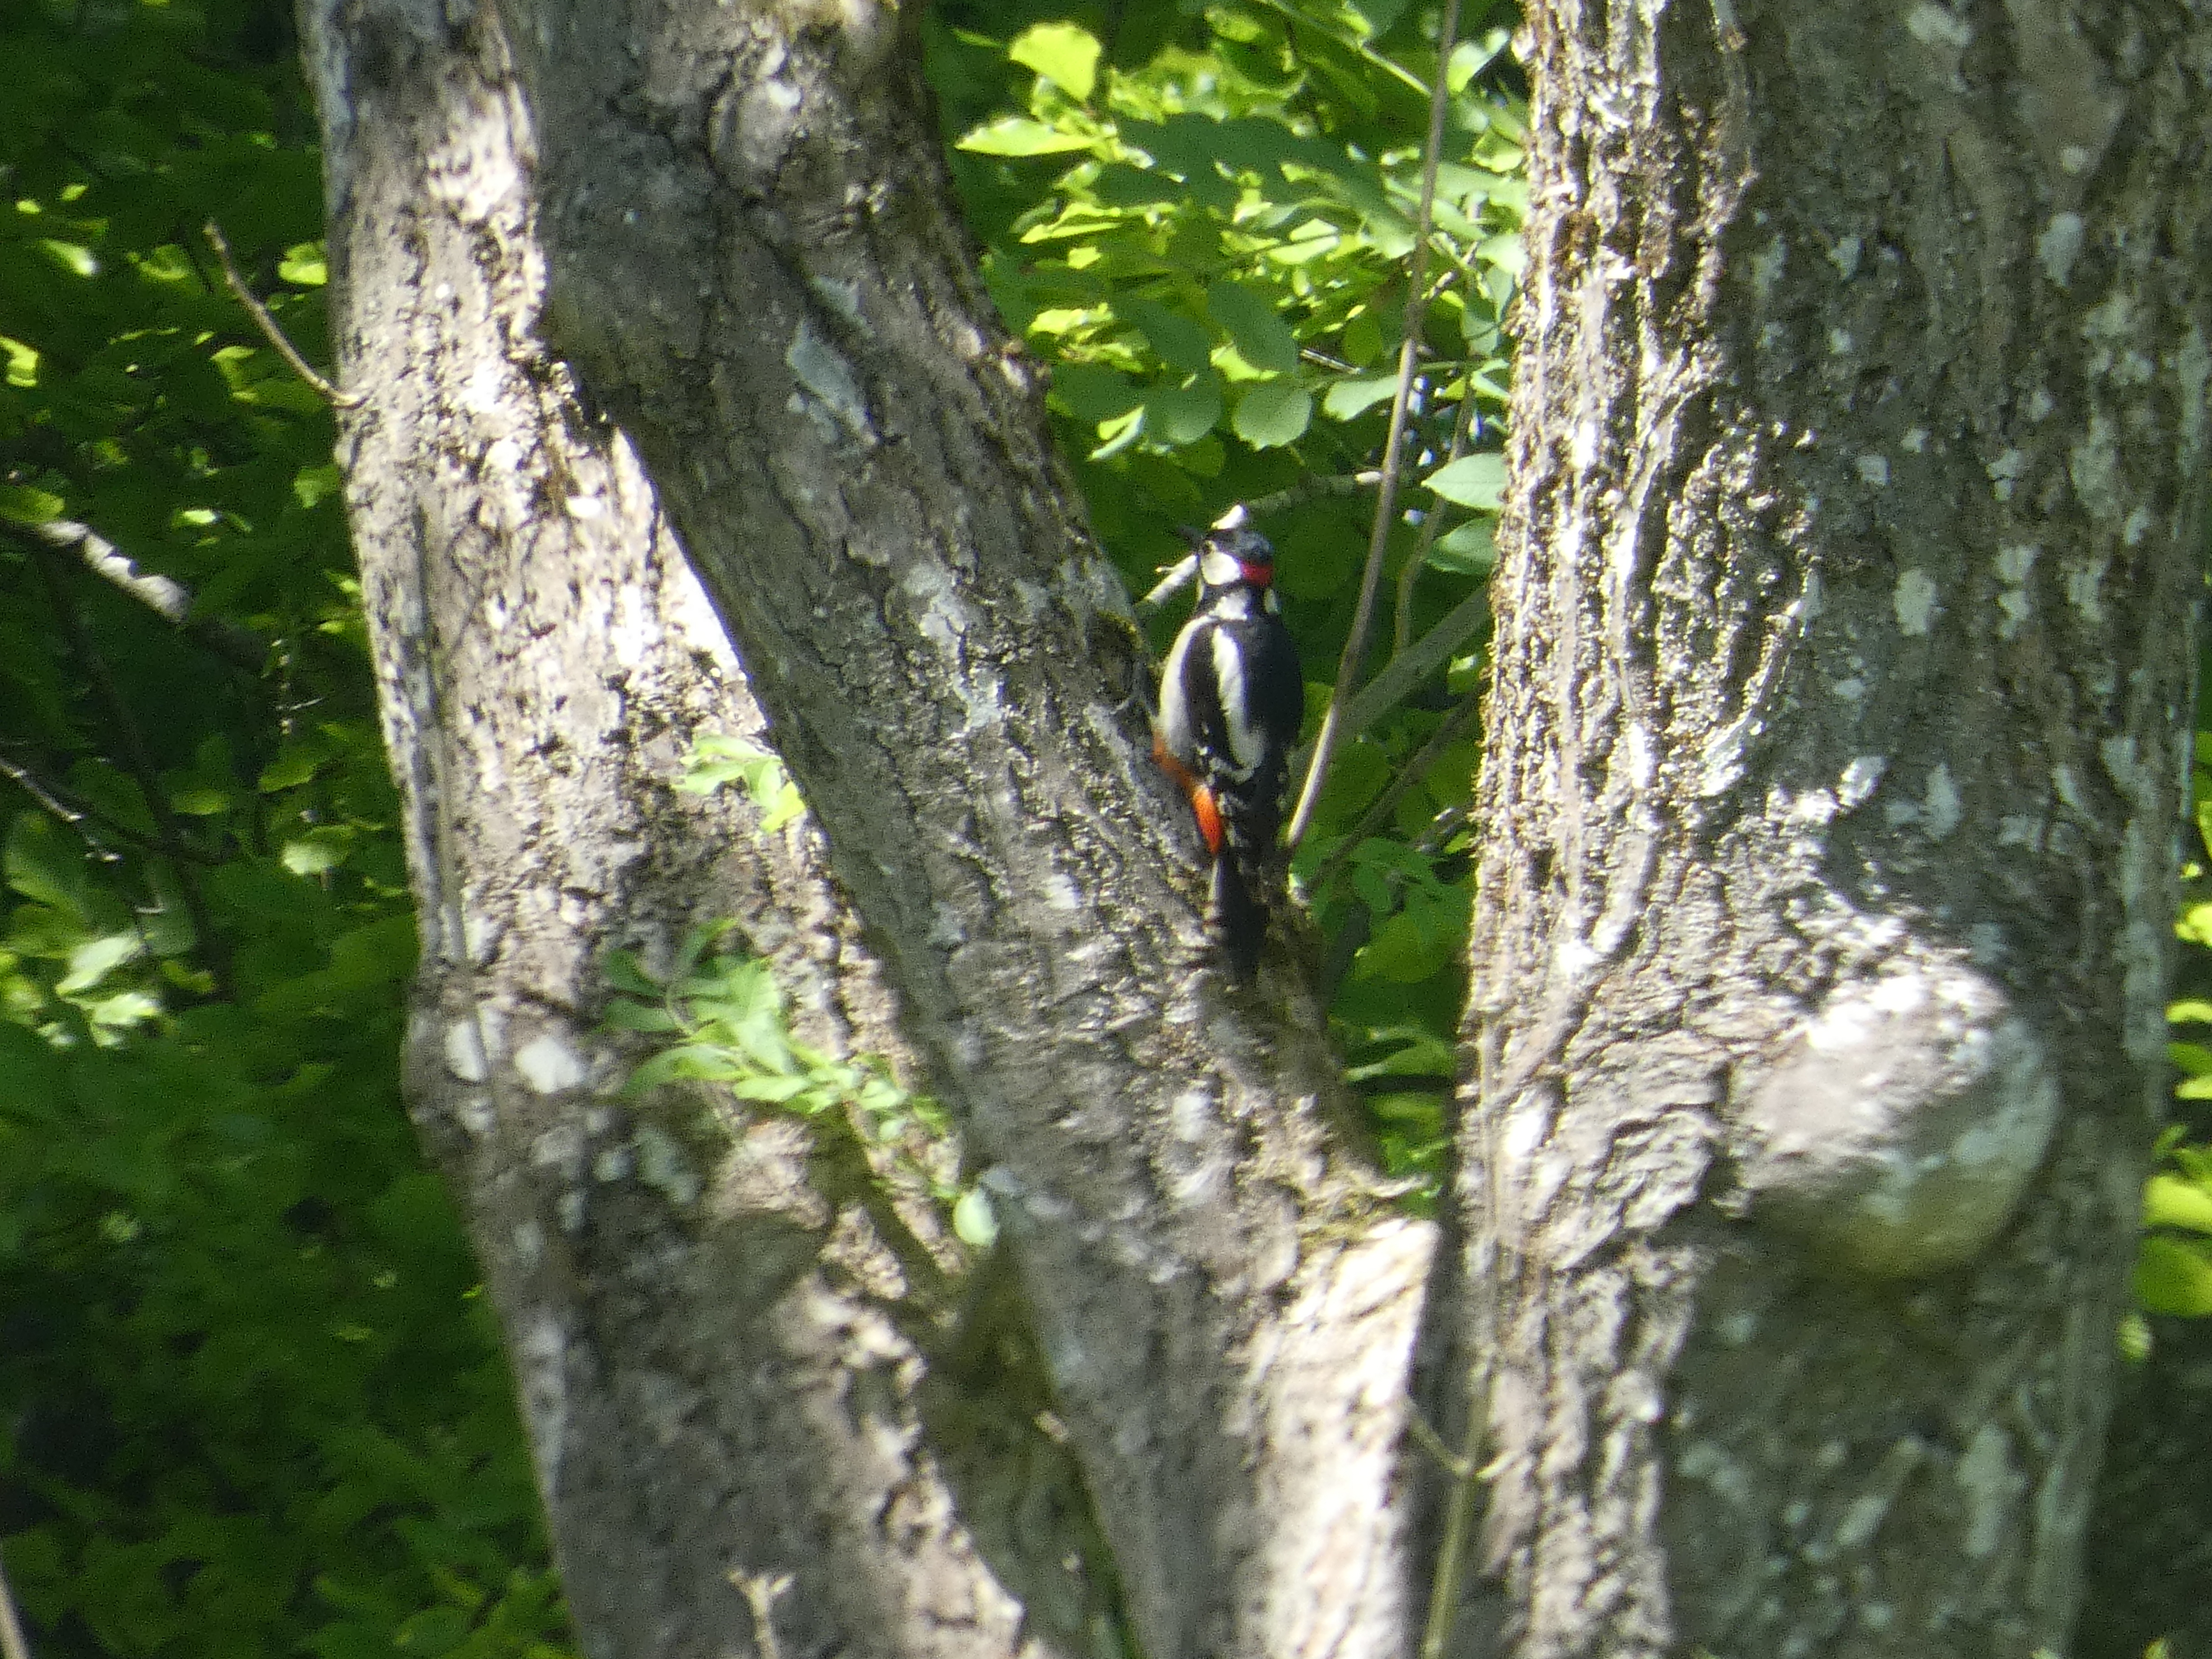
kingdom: Animalia
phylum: Chordata
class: Aves
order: Piciformes
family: Picidae
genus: Dendrocopos
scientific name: Dendrocopos major
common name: Stor flagspætte
